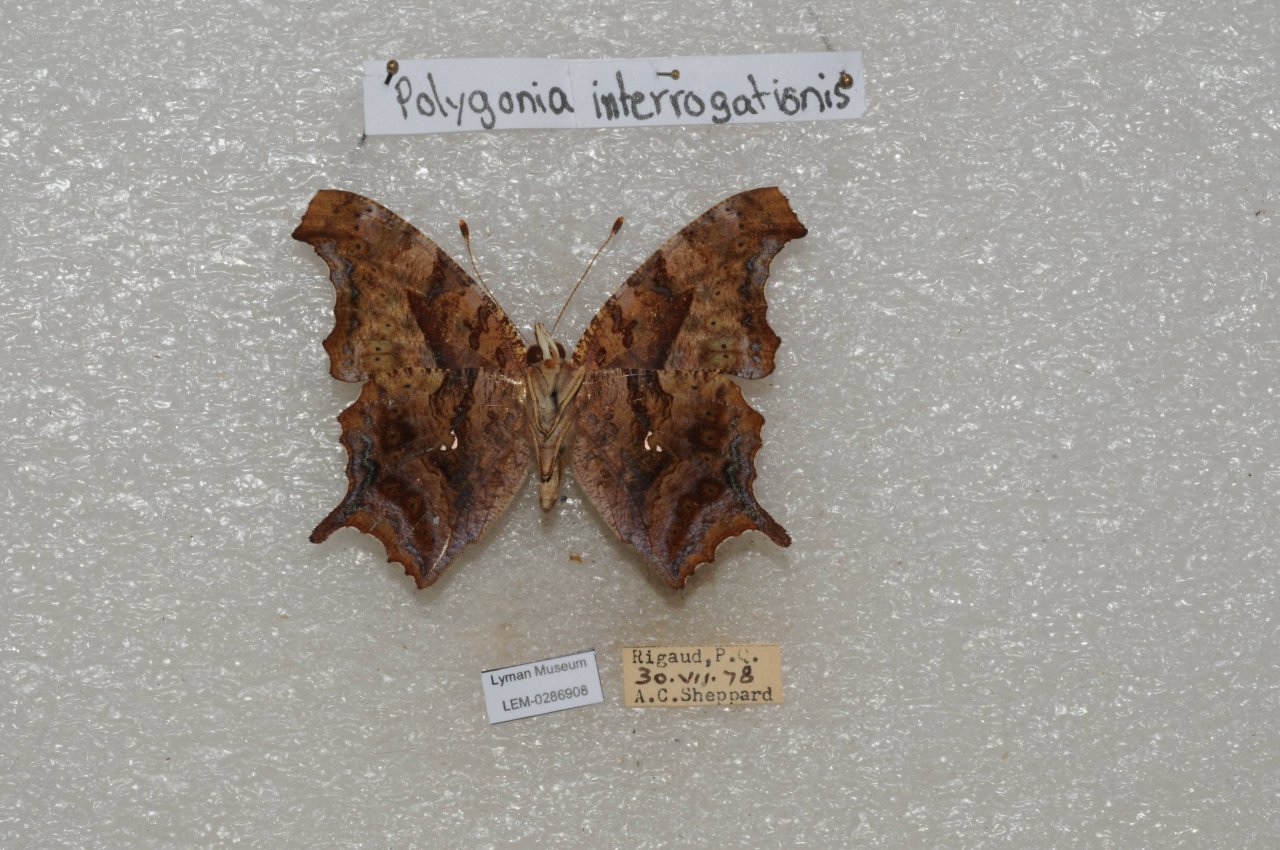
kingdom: Animalia
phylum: Arthropoda
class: Insecta
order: Lepidoptera
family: Nymphalidae
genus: Polygonia
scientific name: Polygonia interrogationis
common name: Question Mark
